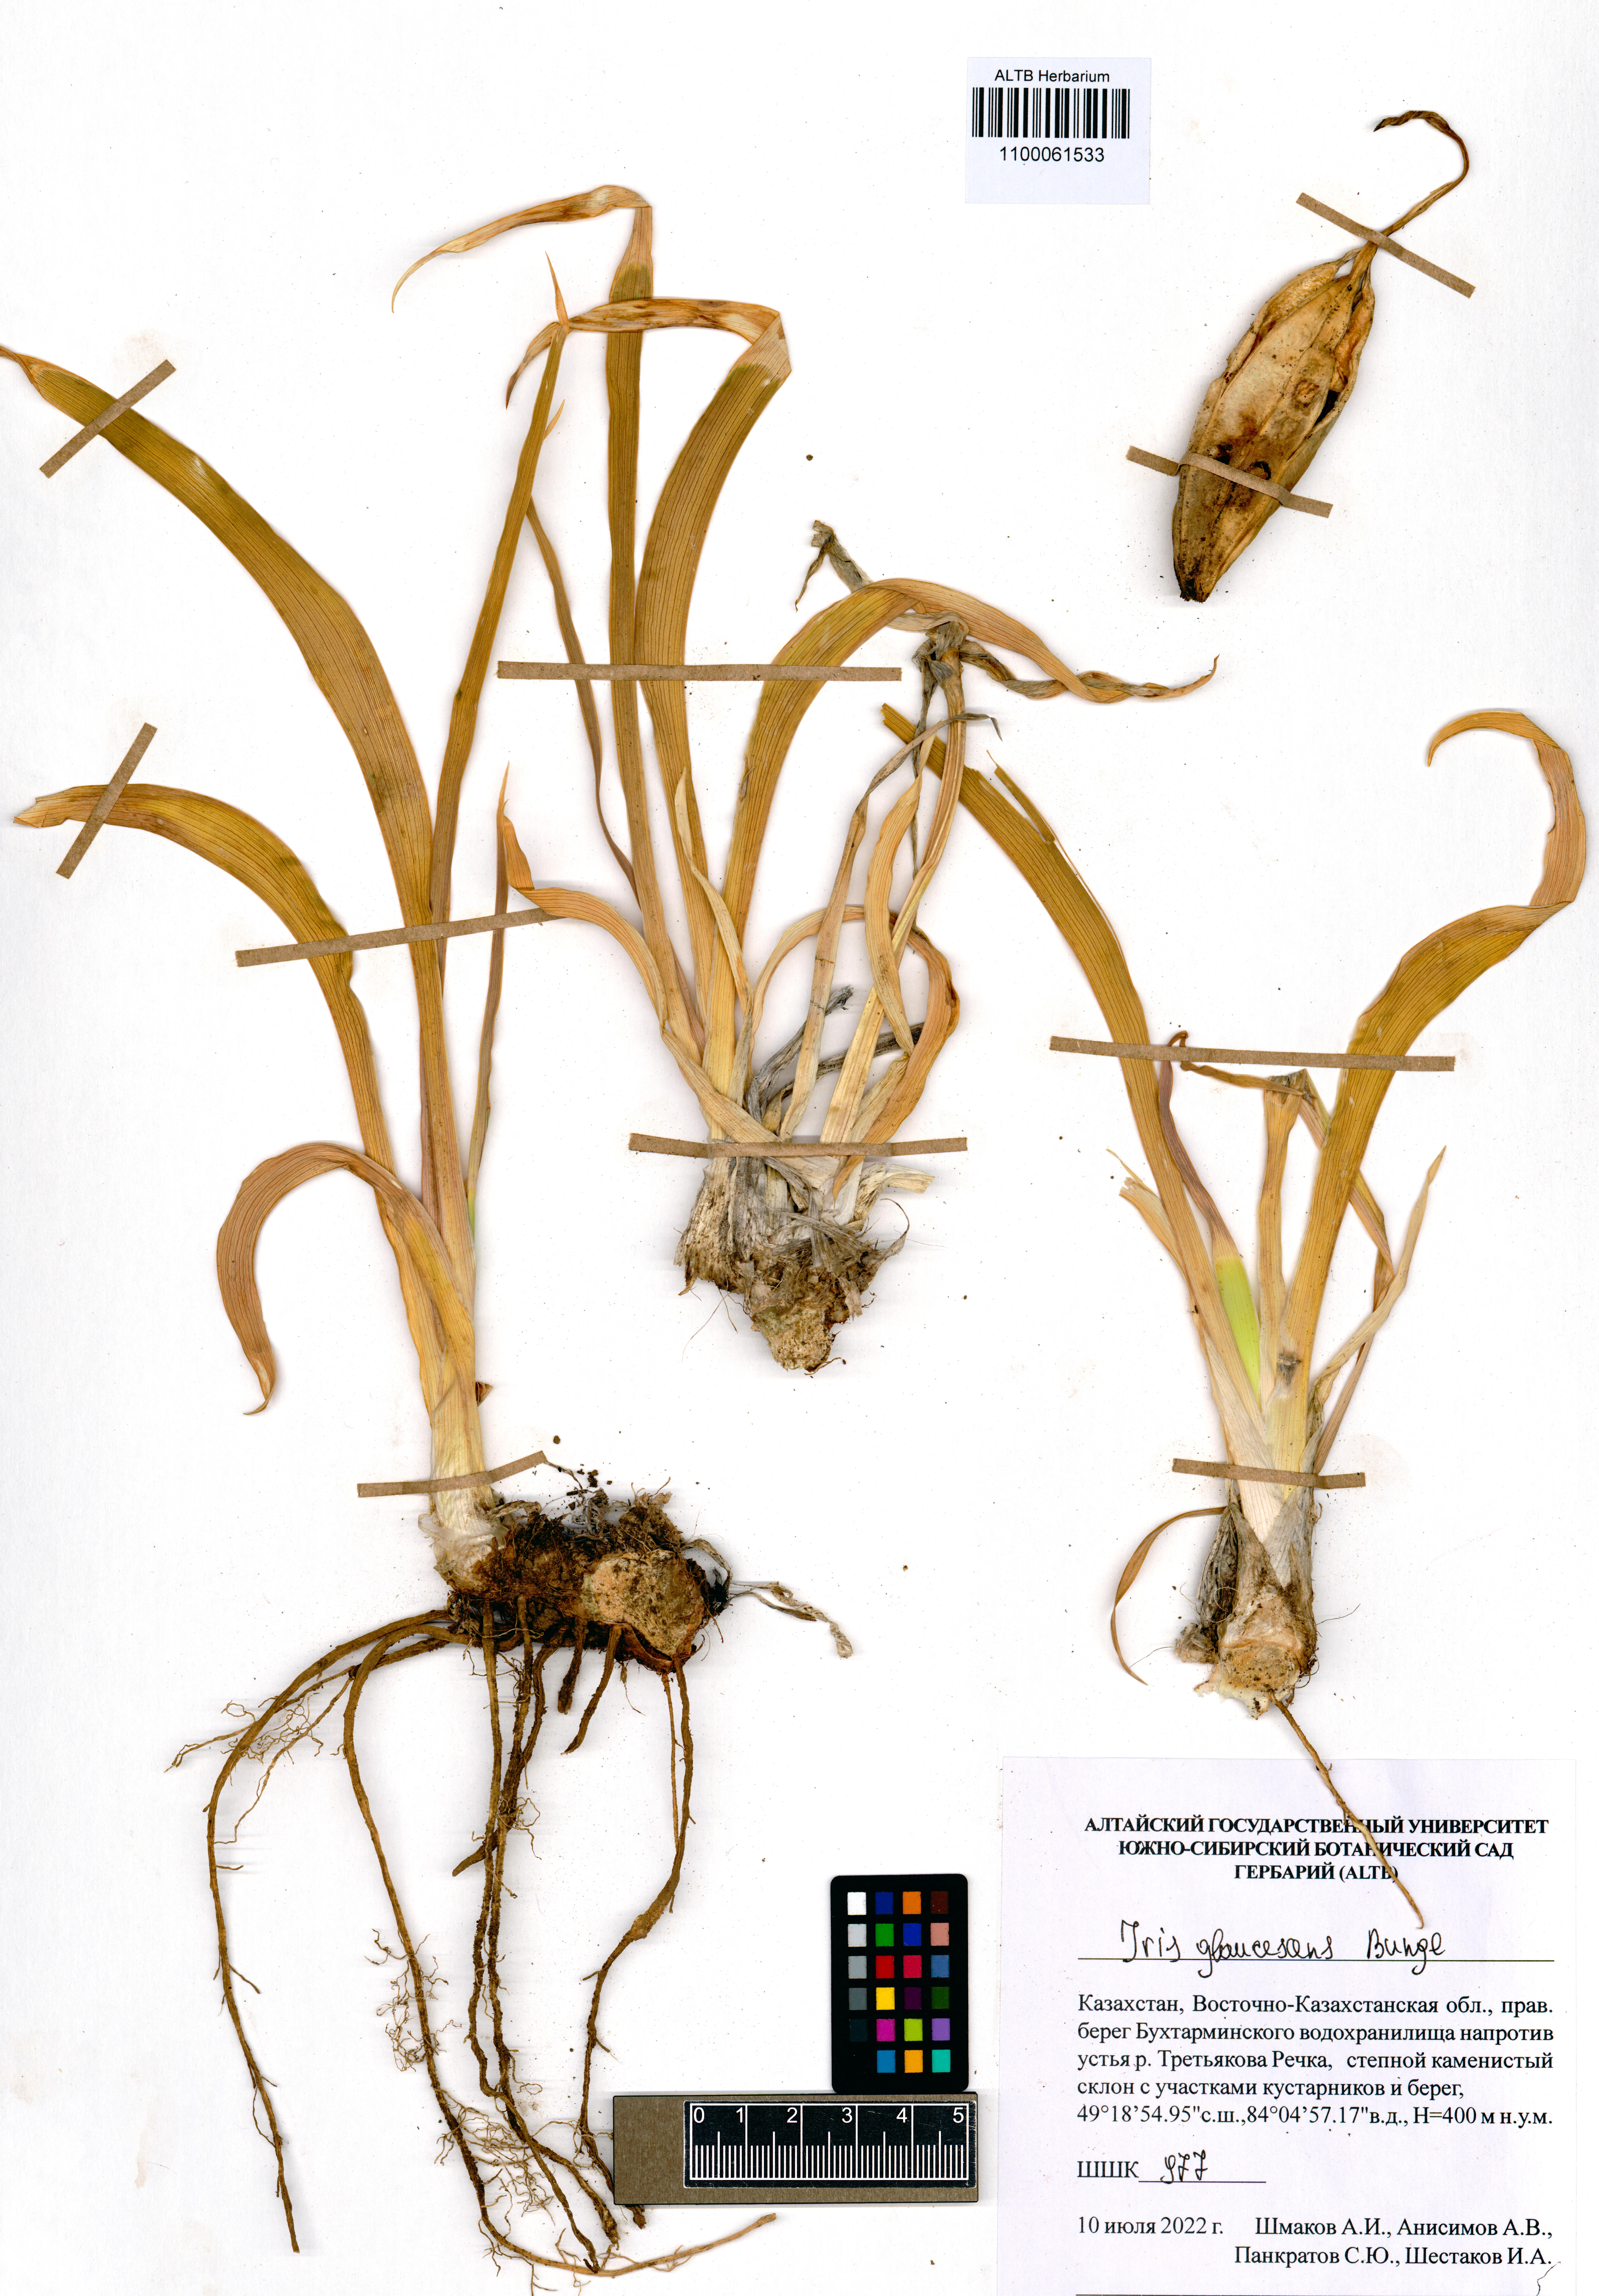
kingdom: Plantae
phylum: Tracheophyta
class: Liliopsida
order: Asparagales
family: Iridaceae
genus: Iris
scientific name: Iris glaucescens
